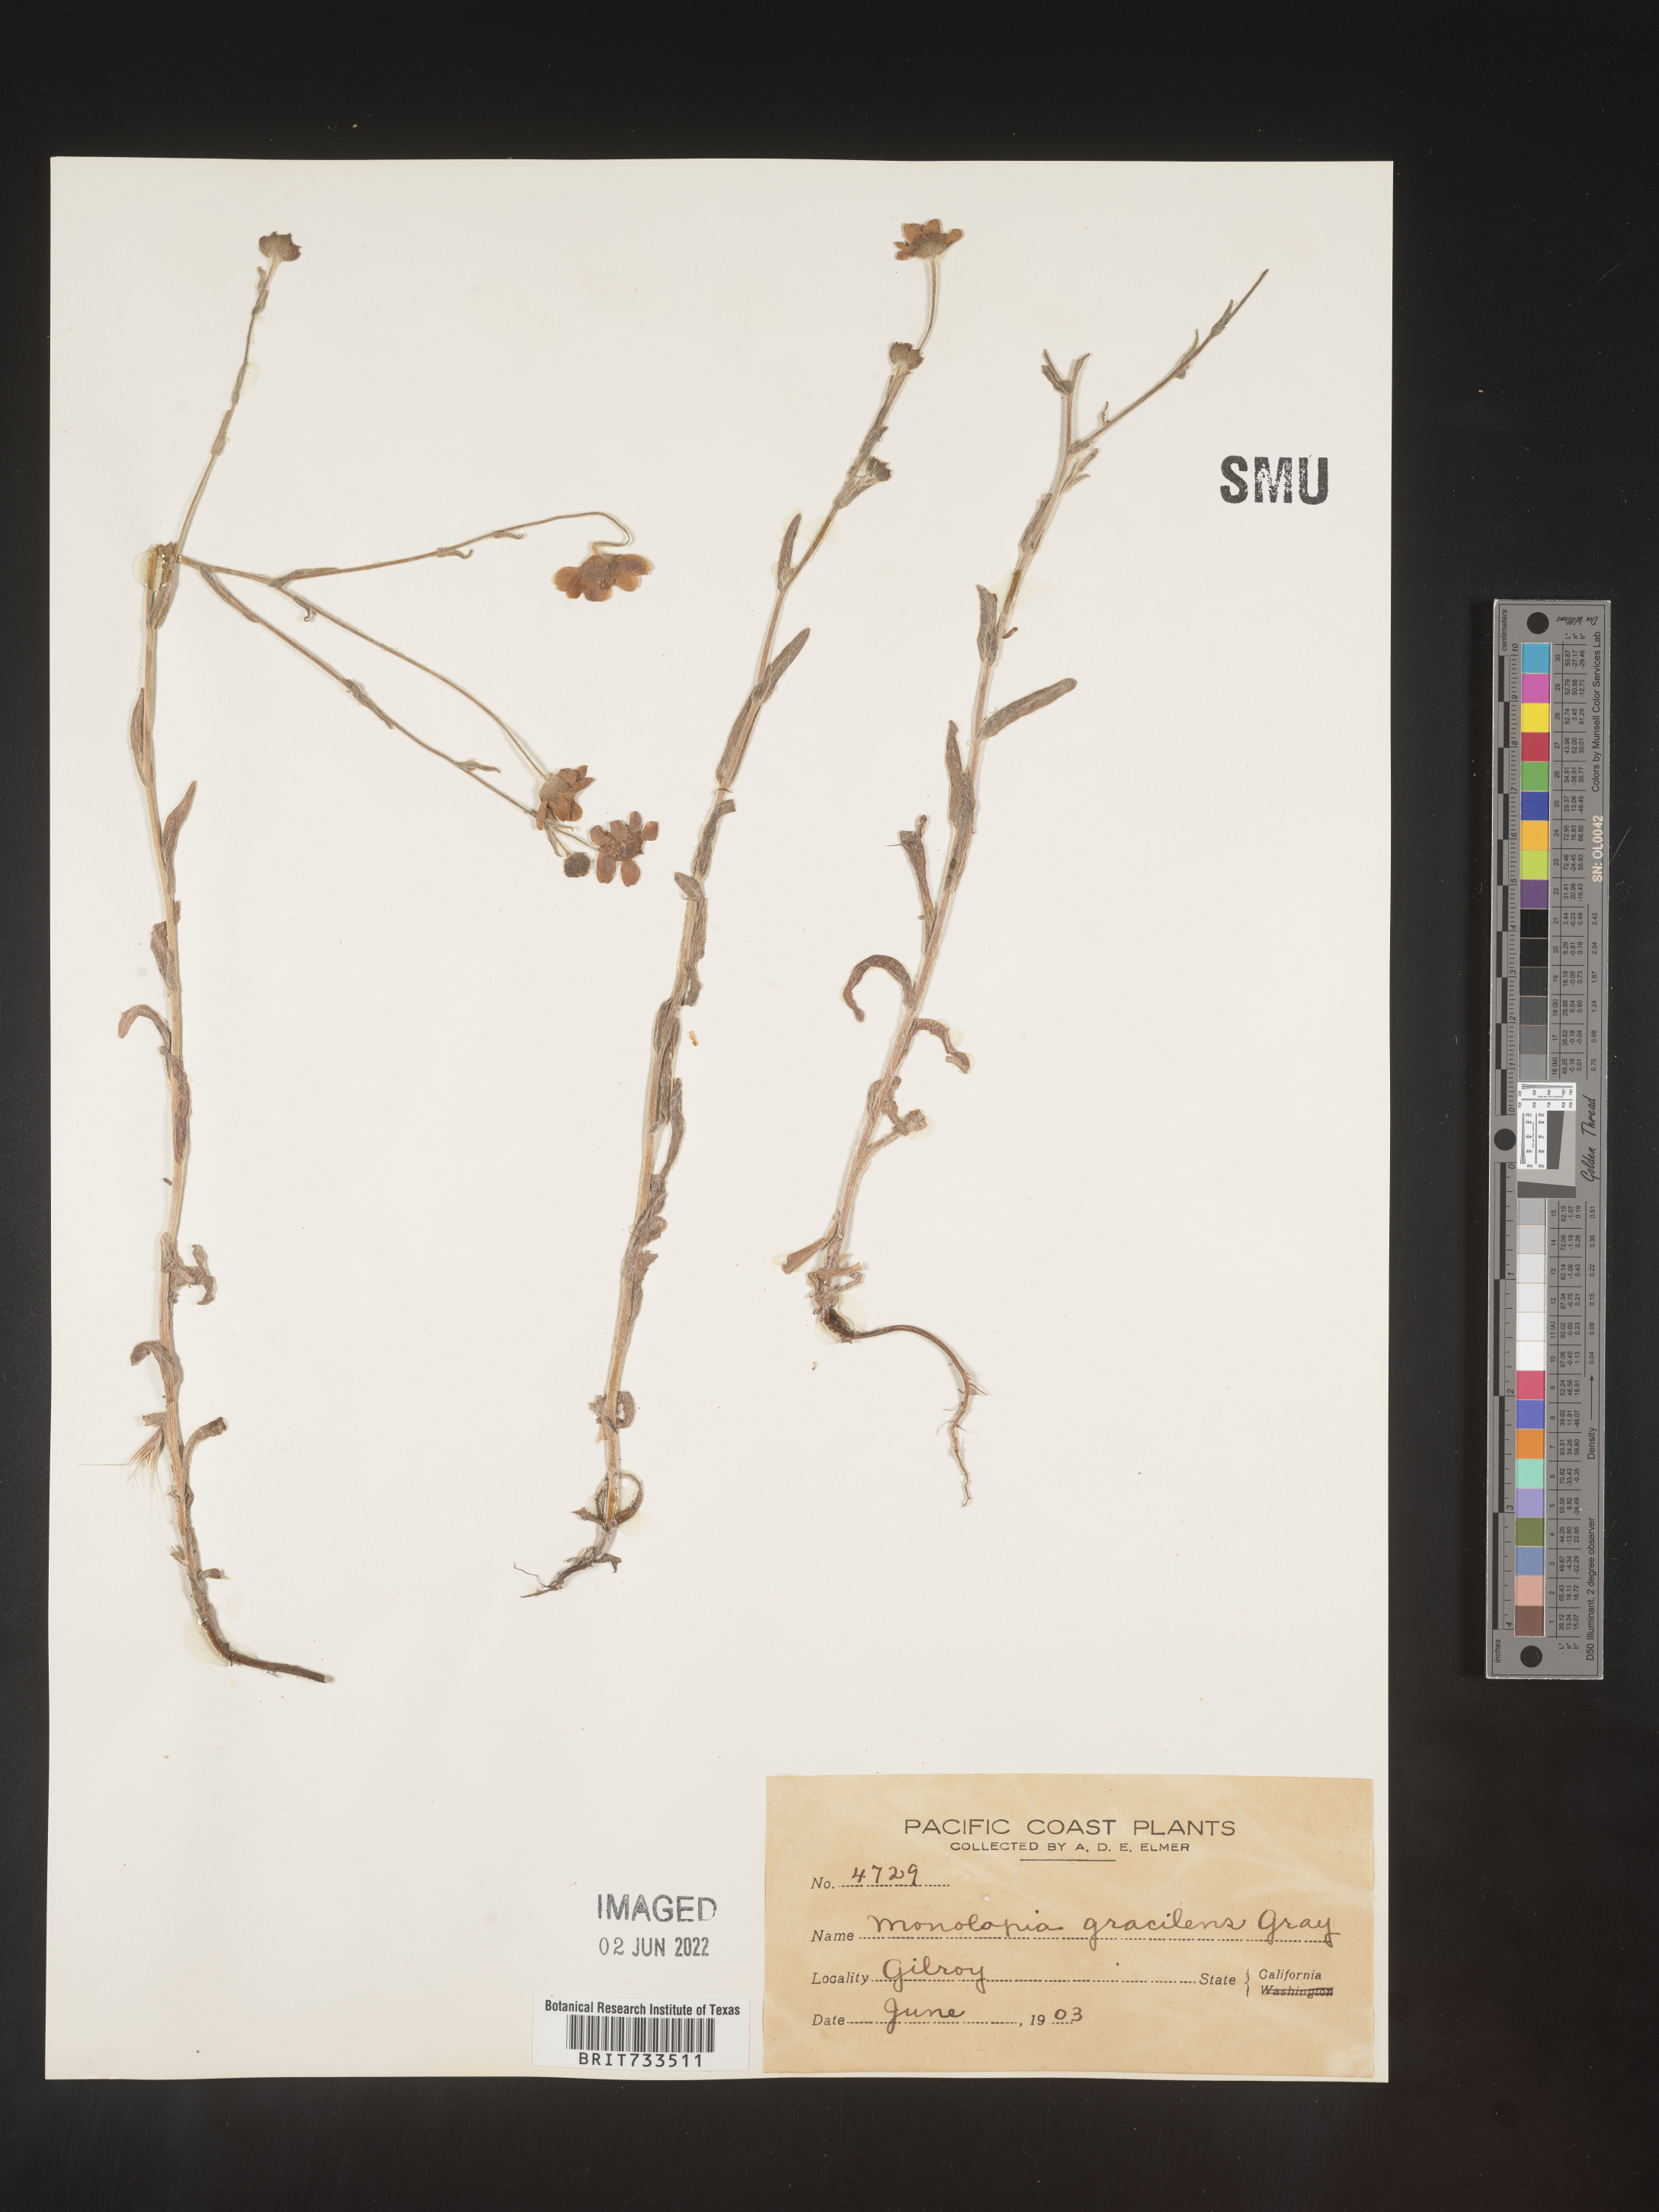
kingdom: Plantae
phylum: Tracheophyta
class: Magnoliopsida
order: Asterales
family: Asteraceae
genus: Monolopia
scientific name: Monolopia gracilens
